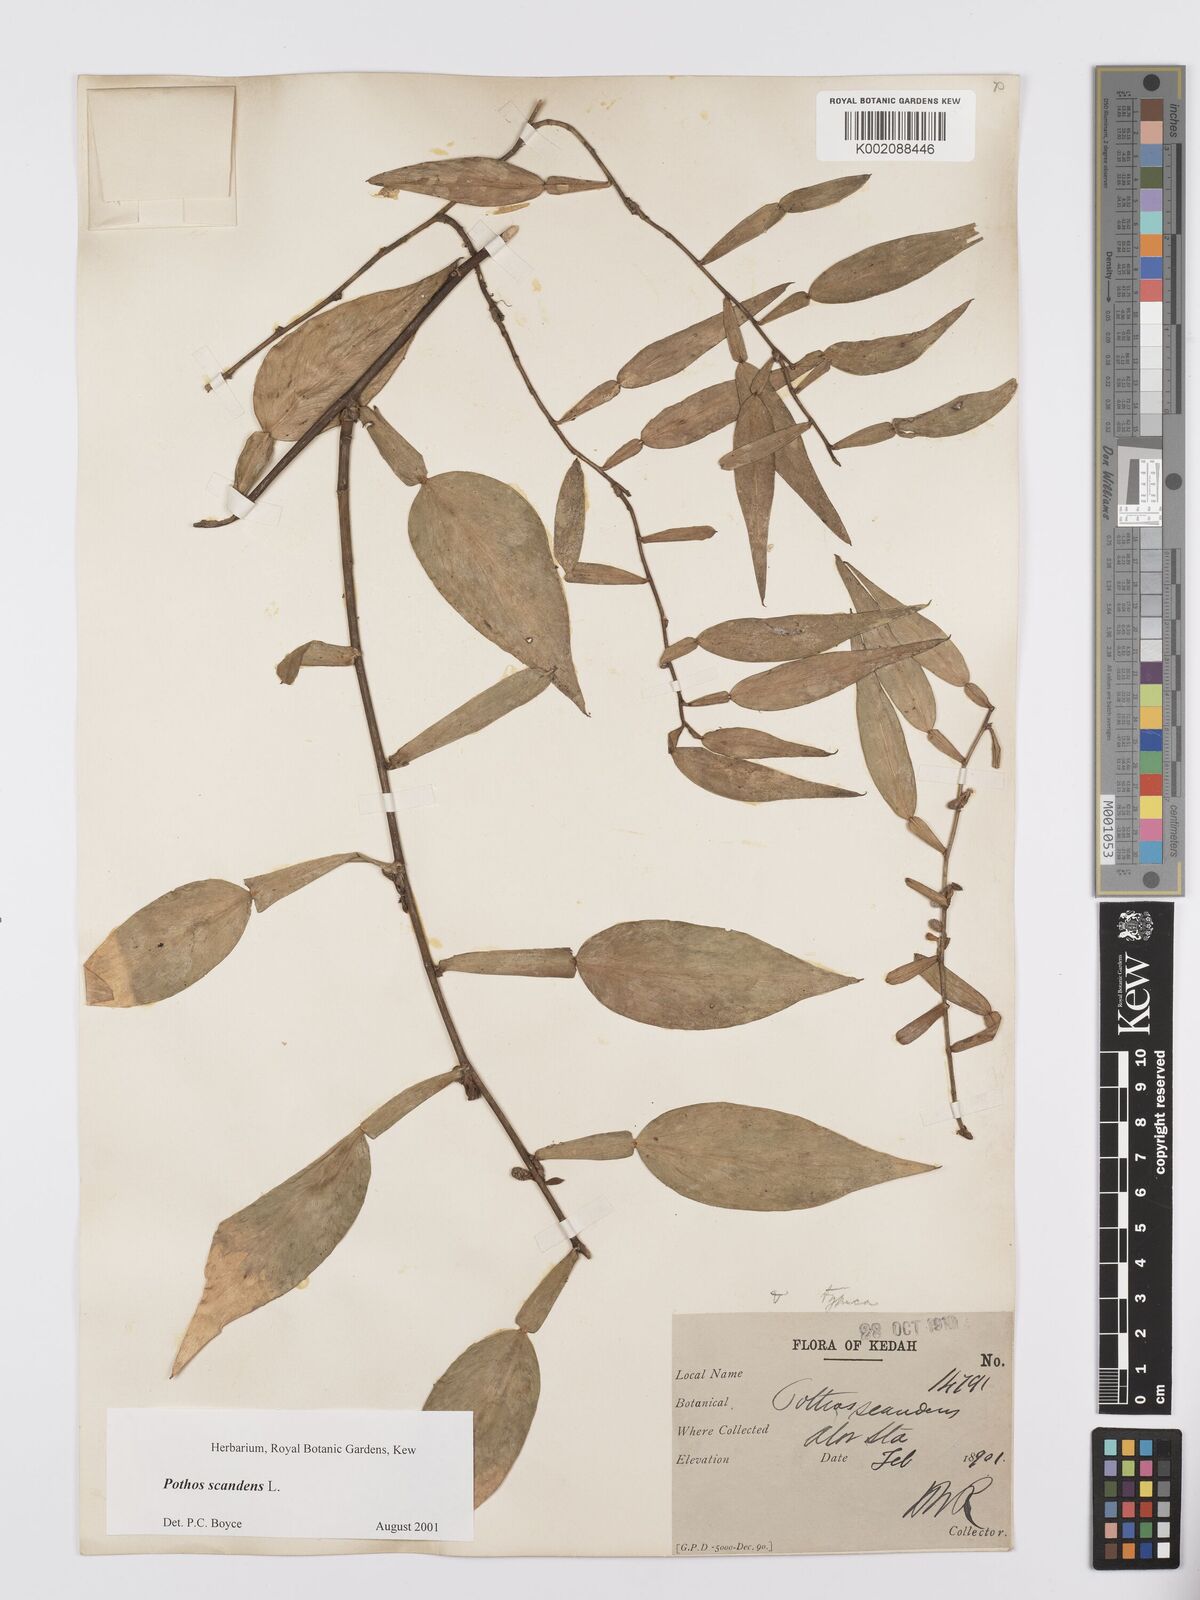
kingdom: Plantae
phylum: Tracheophyta
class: Liliopsida
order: Alismatales
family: Araceae
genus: Pothos
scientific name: Pothos scandens
